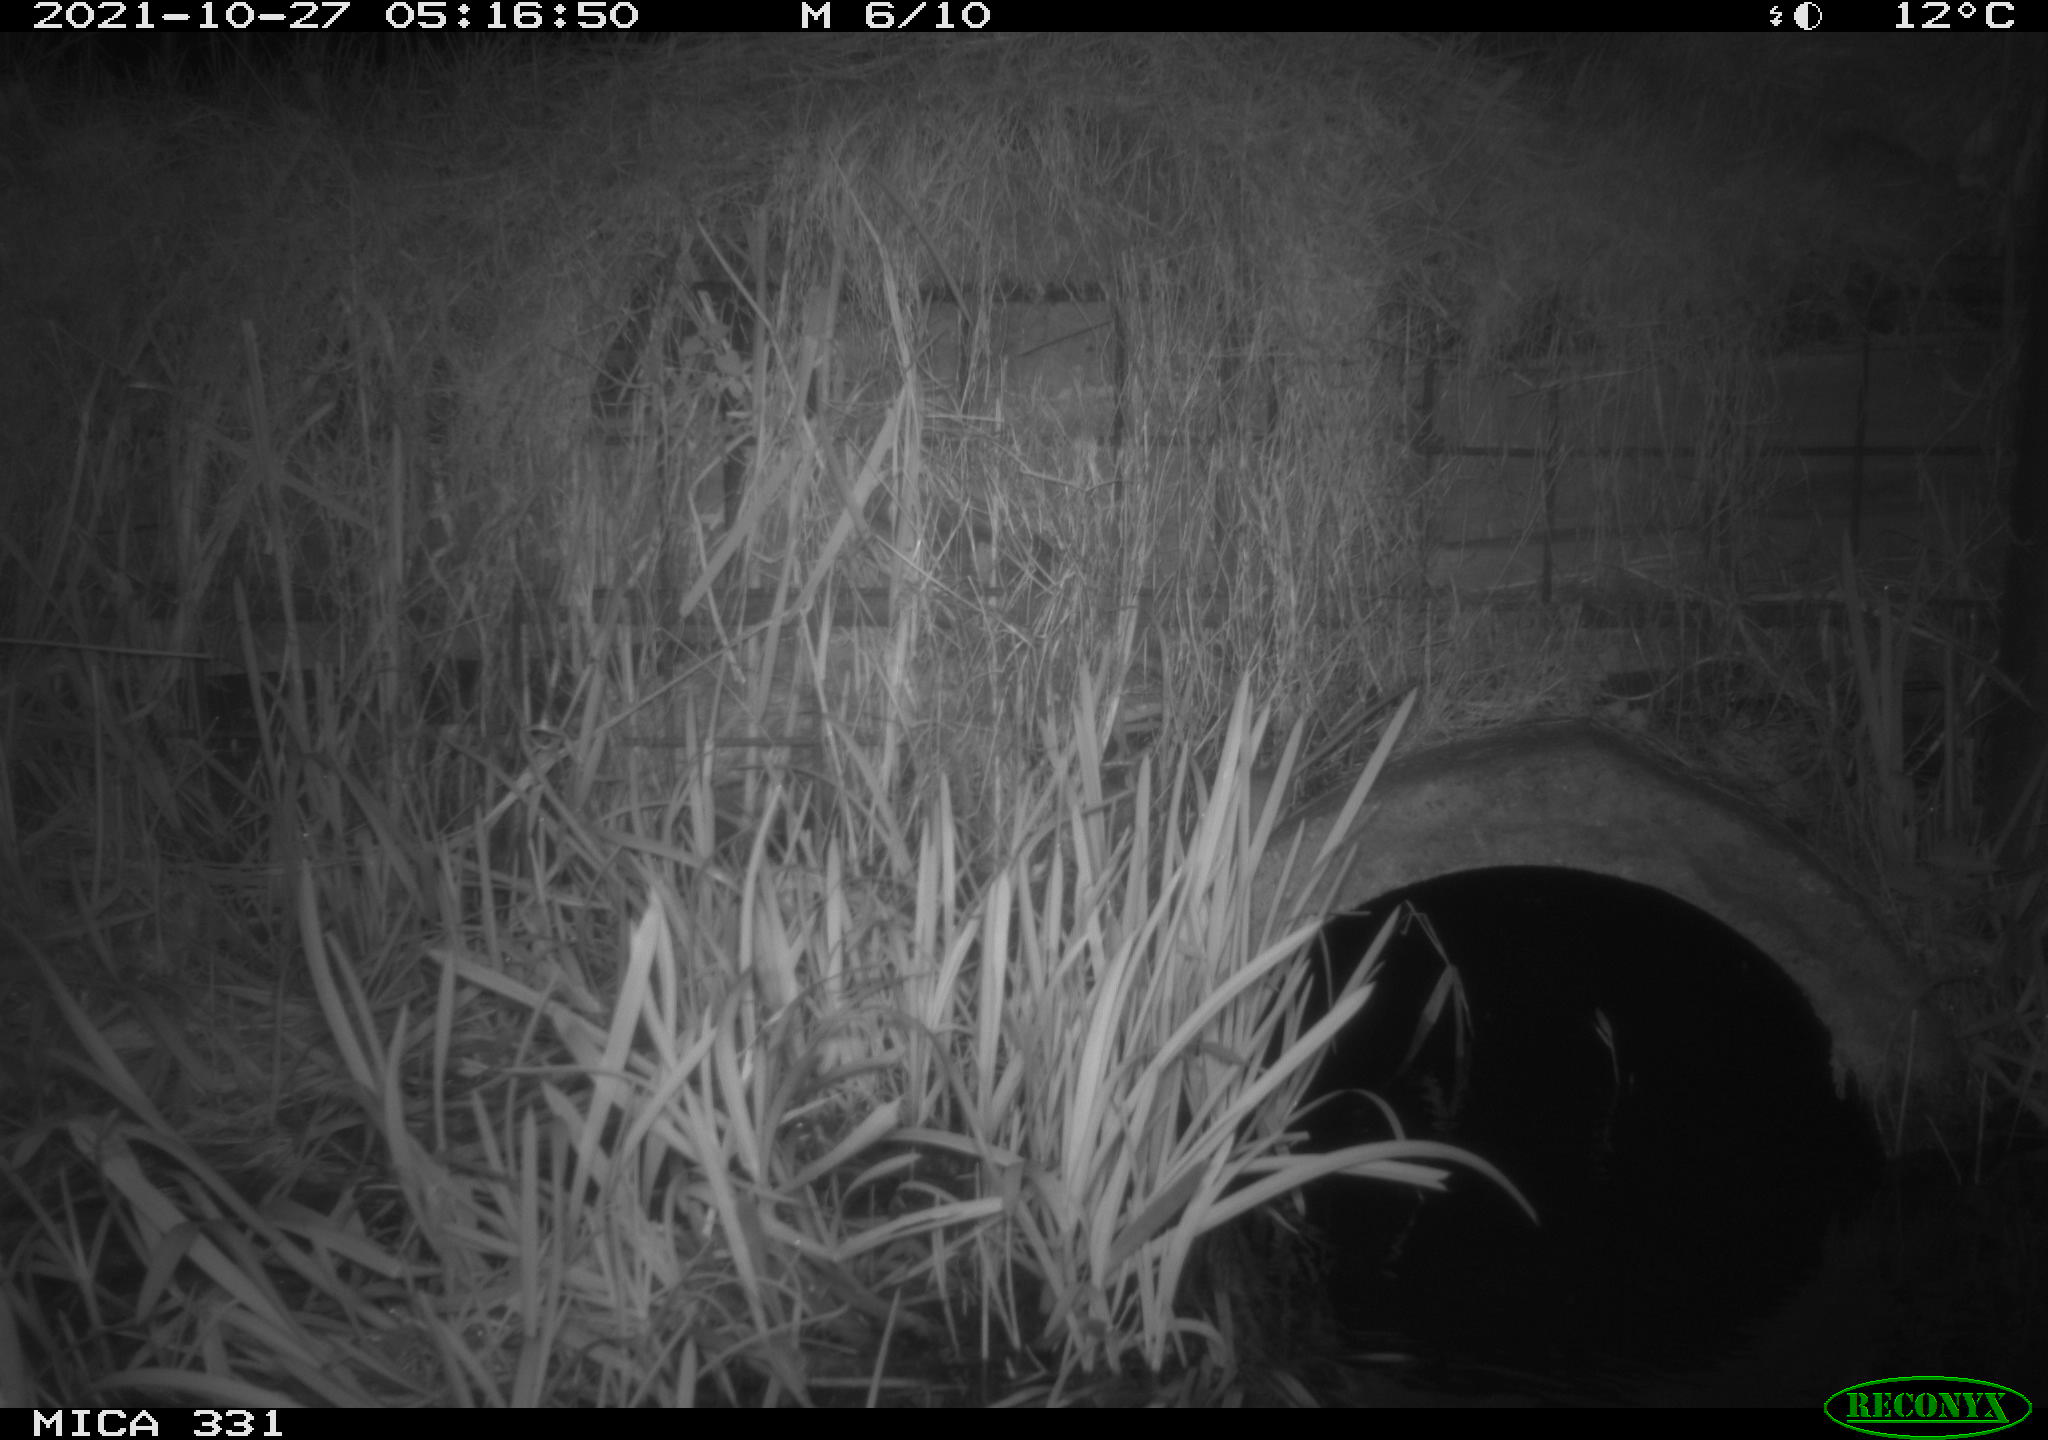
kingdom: Animalia
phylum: Chordata
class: Mammalia
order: Rodentia
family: Muridae
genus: Rattus
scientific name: Rattus norvegicus
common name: Brown rat
